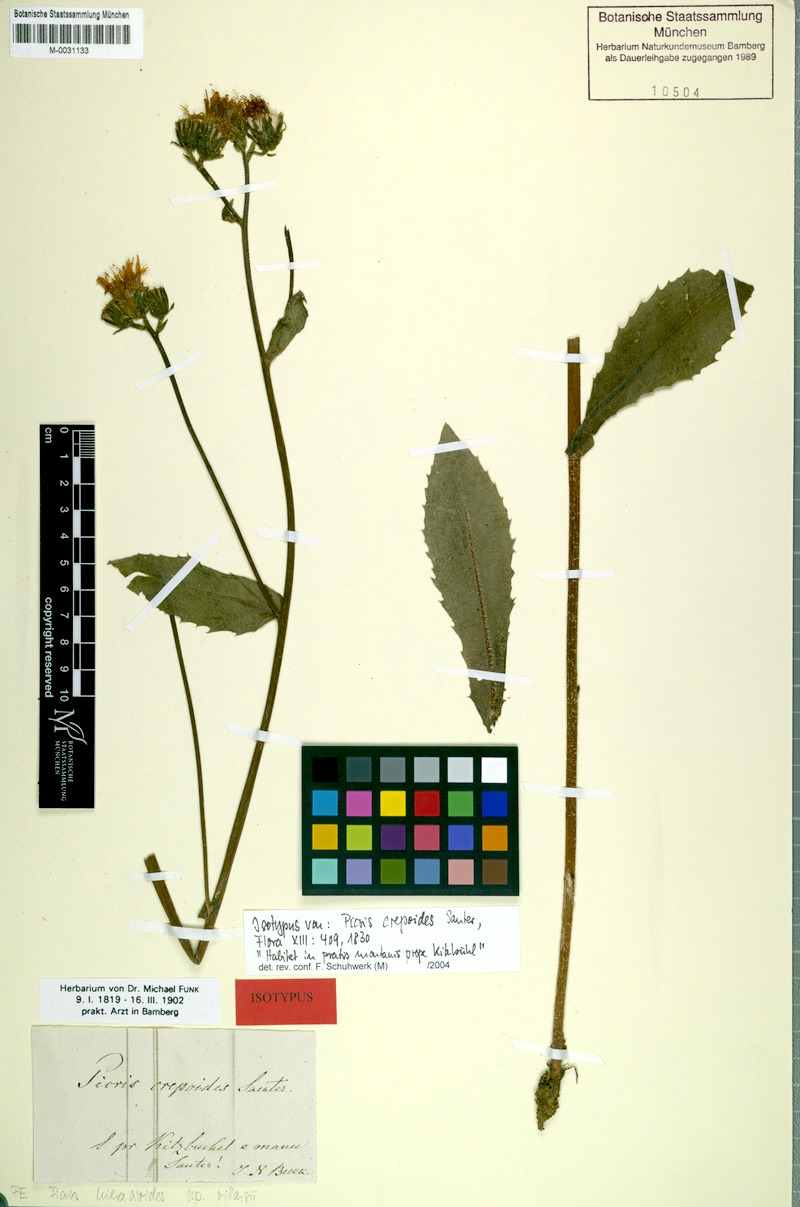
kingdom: Plantae
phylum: Tracheophyta
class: Magnoliopsida
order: Asterales
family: Asteraceae
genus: Picris
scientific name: Picris hieracioides
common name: Hawkweed oxtongue
